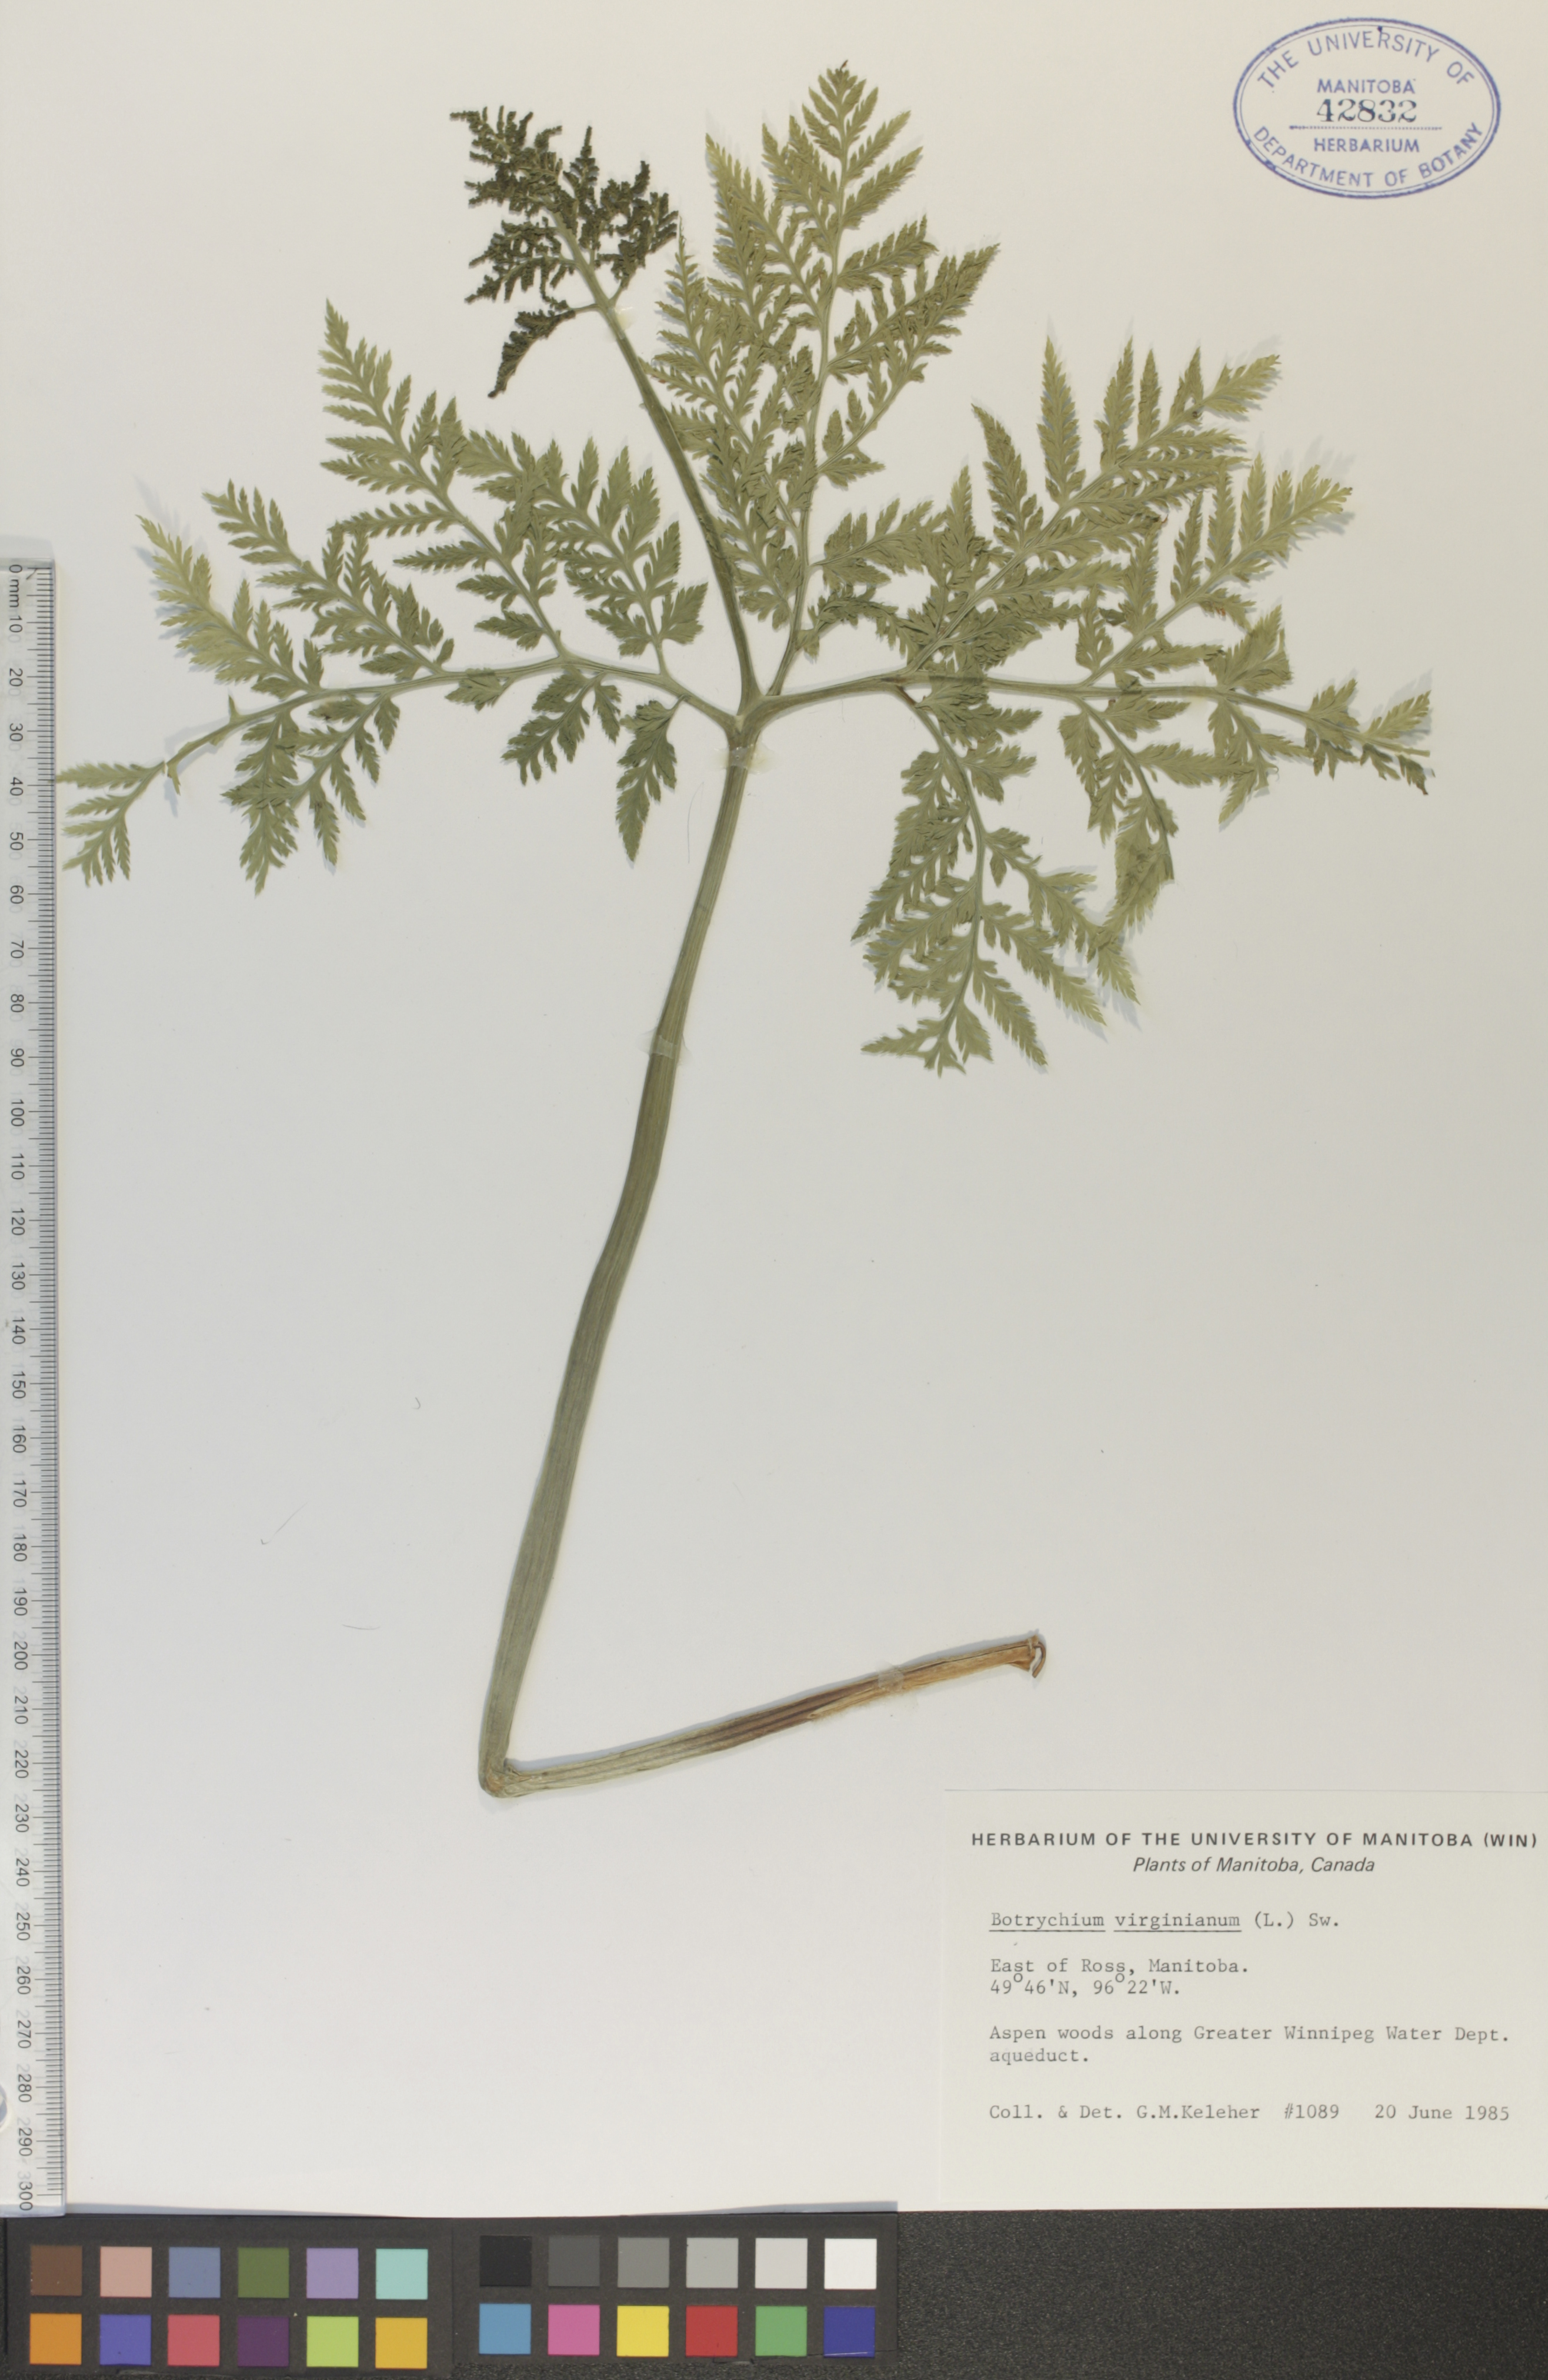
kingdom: Plantae
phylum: Tracheophyta
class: Polypodiopsida
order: Ophioglossales
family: Ophioglossaceae
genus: Botrypus
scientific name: Botrypus virginianus
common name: Common grapefern
